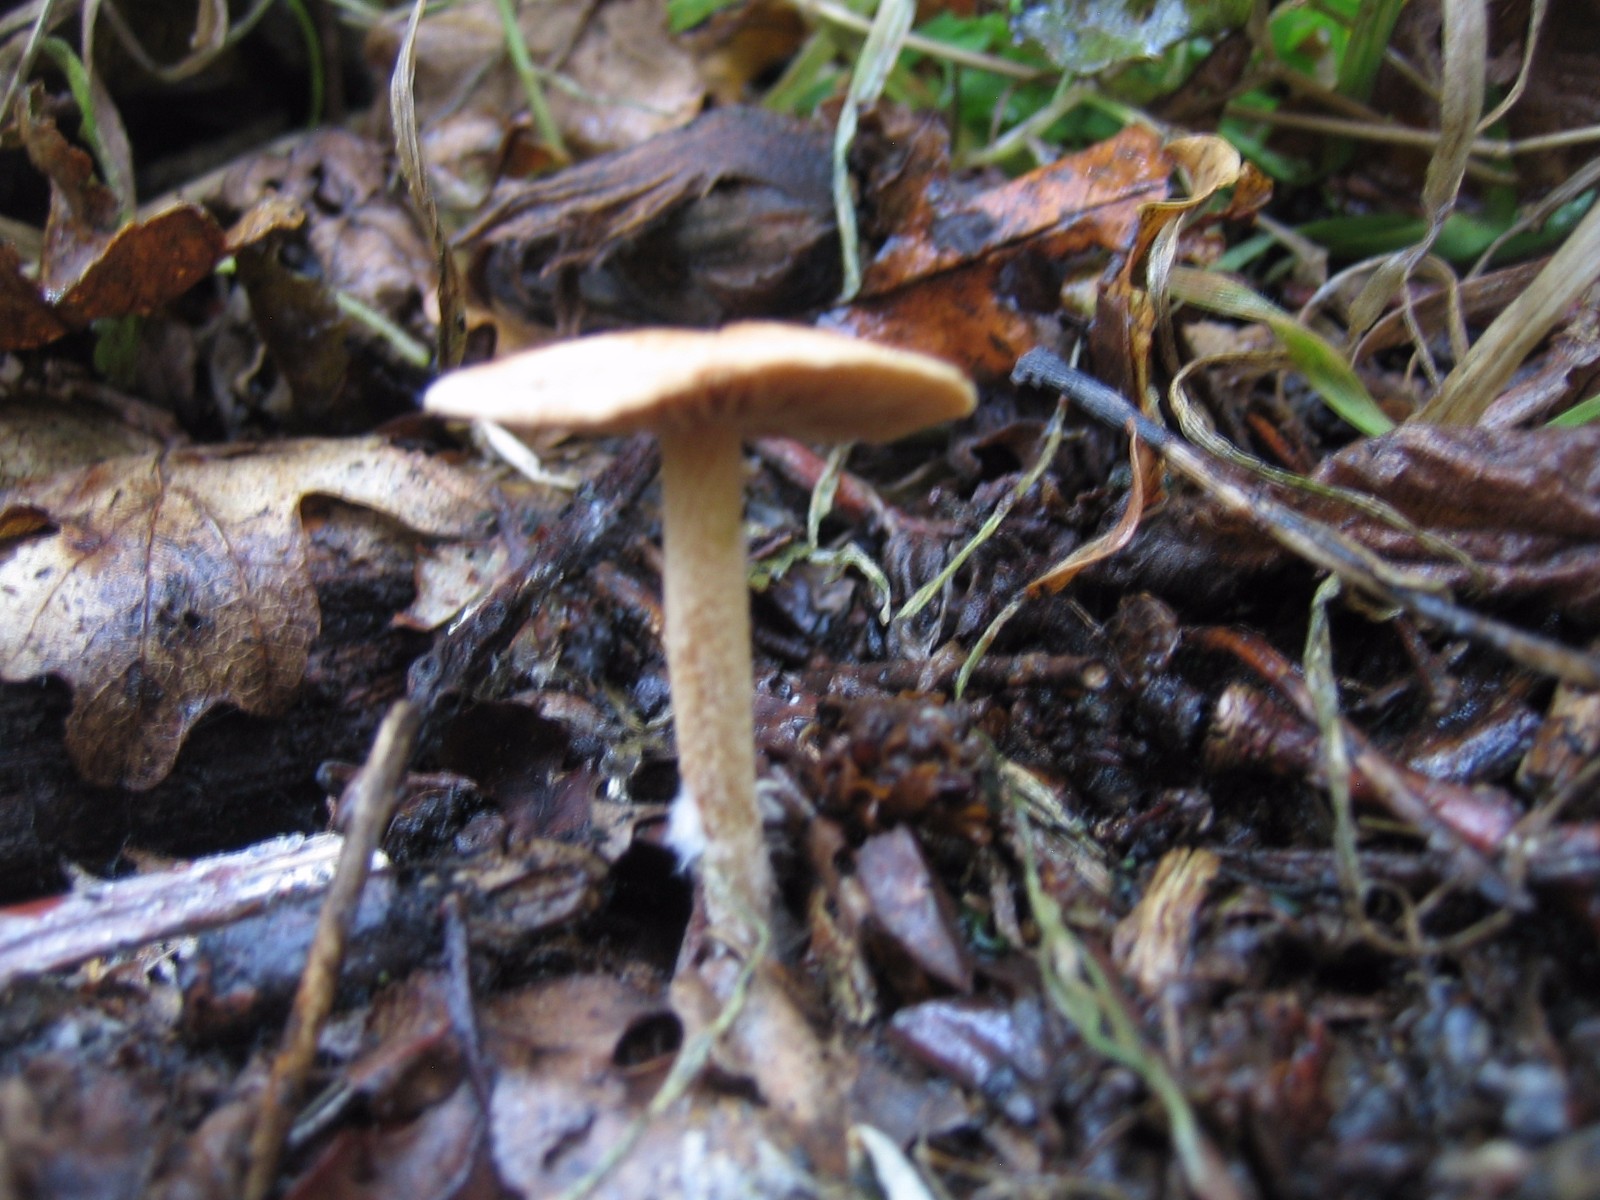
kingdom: Fungi
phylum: Basidiomycota
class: Agaricomycetes
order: Agaricales
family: Omphalotaceae
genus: Collybiopsis
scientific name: Collybiopsis peronata
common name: bestøvlet fladhat
